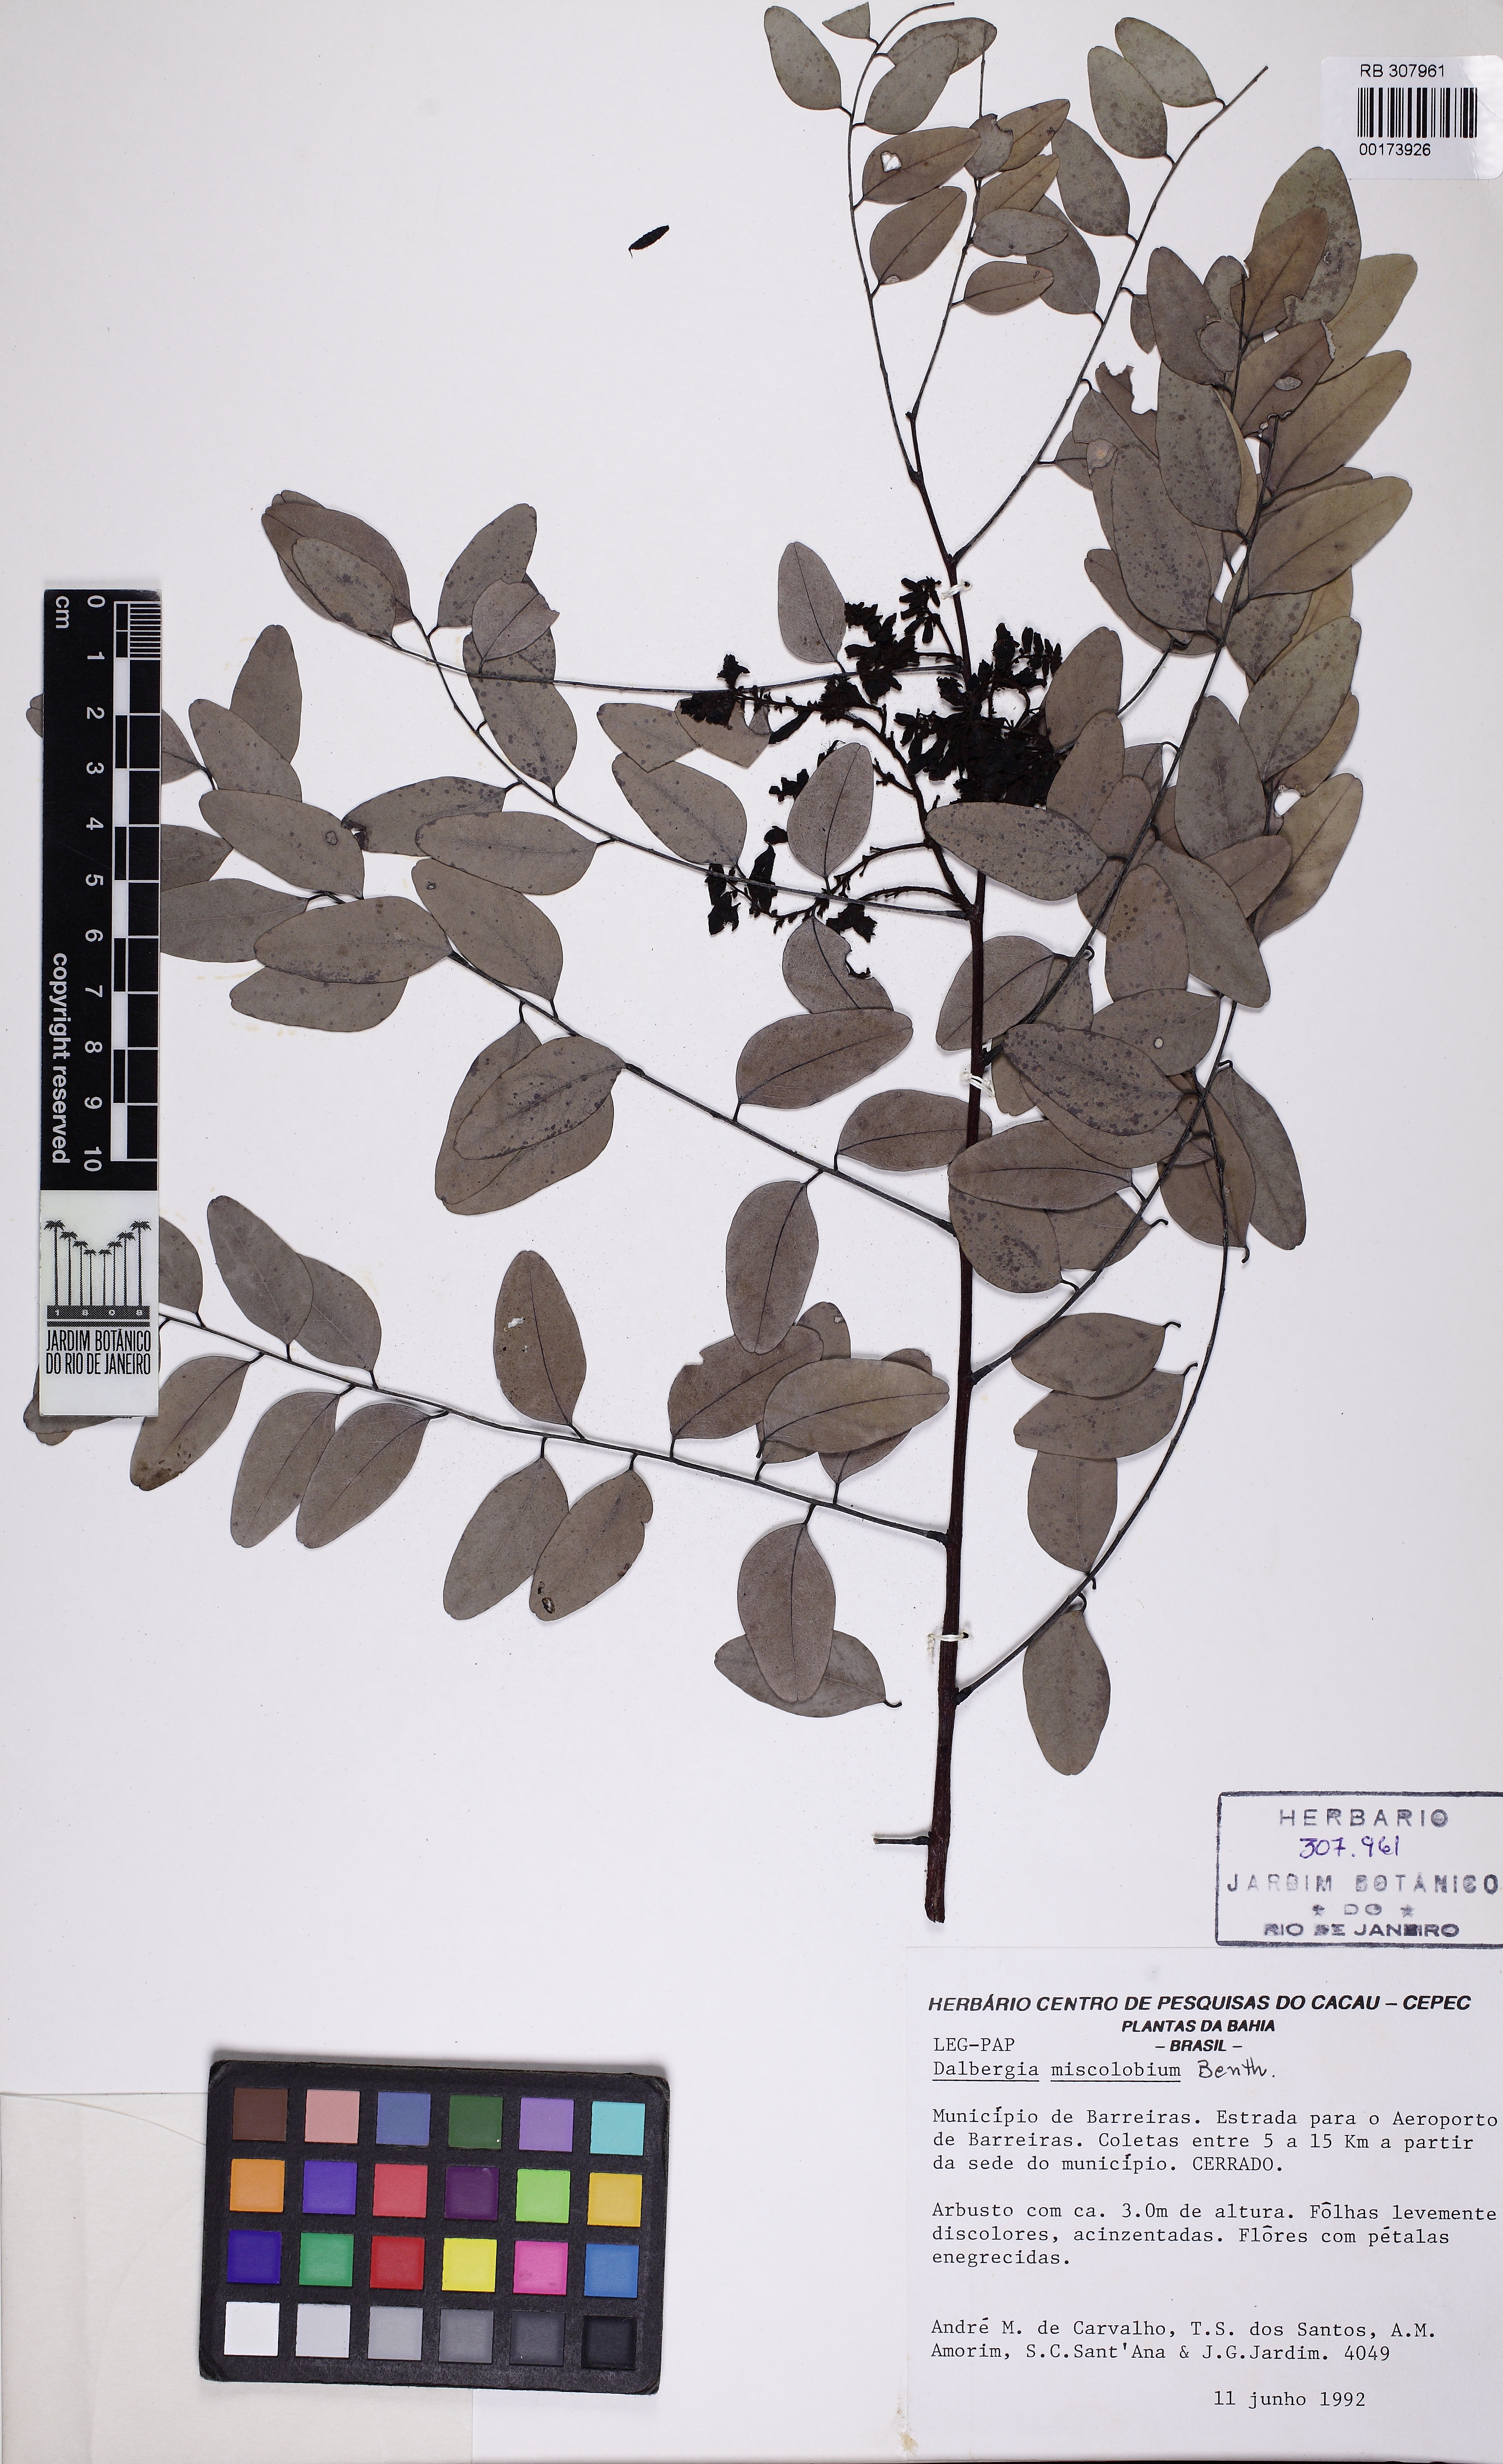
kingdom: Plantae
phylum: Tracheophyta
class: Magnoliopsida
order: Fabales
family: Fabaceae
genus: Dalbergia
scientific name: Dalbergia miscolobium
